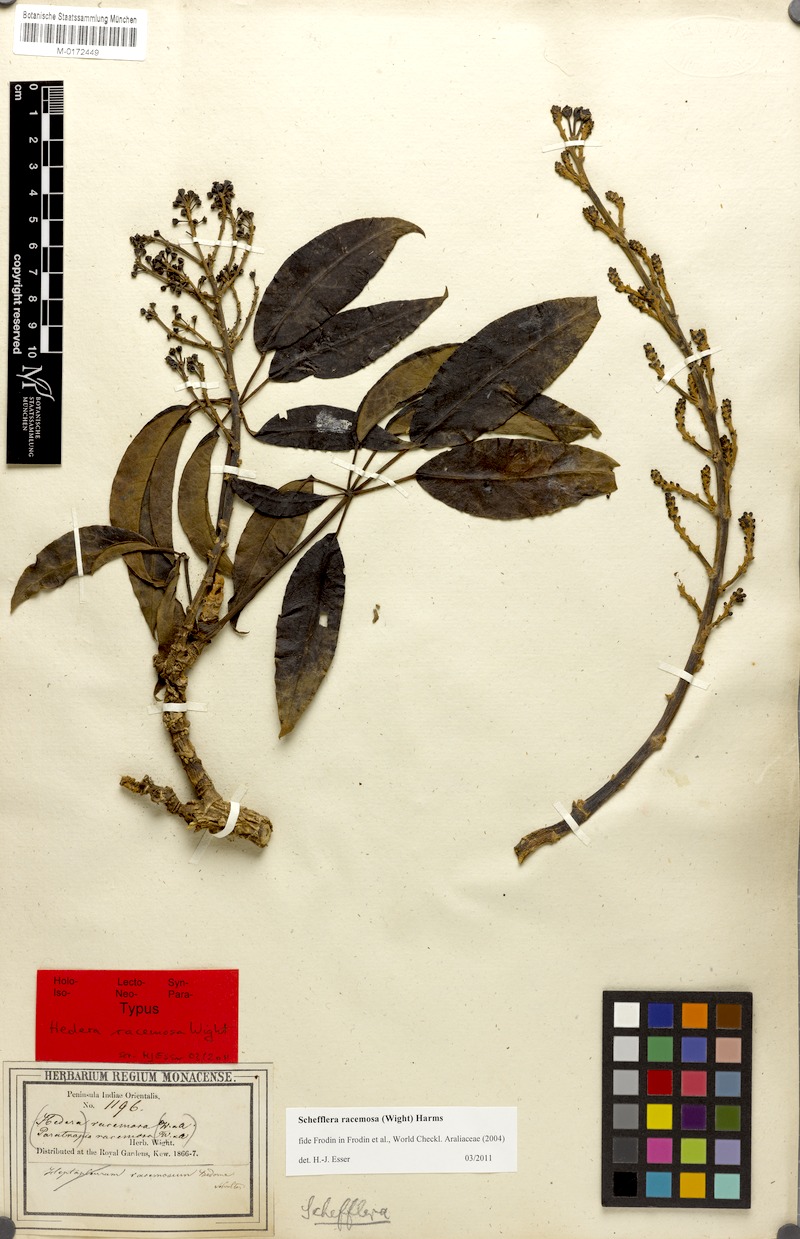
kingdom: Plantae
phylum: Tracheophyta
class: Magnoliopsida
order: Apiales
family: Araliaceae
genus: Heptapleurum
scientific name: Heptapleurum racemosum
